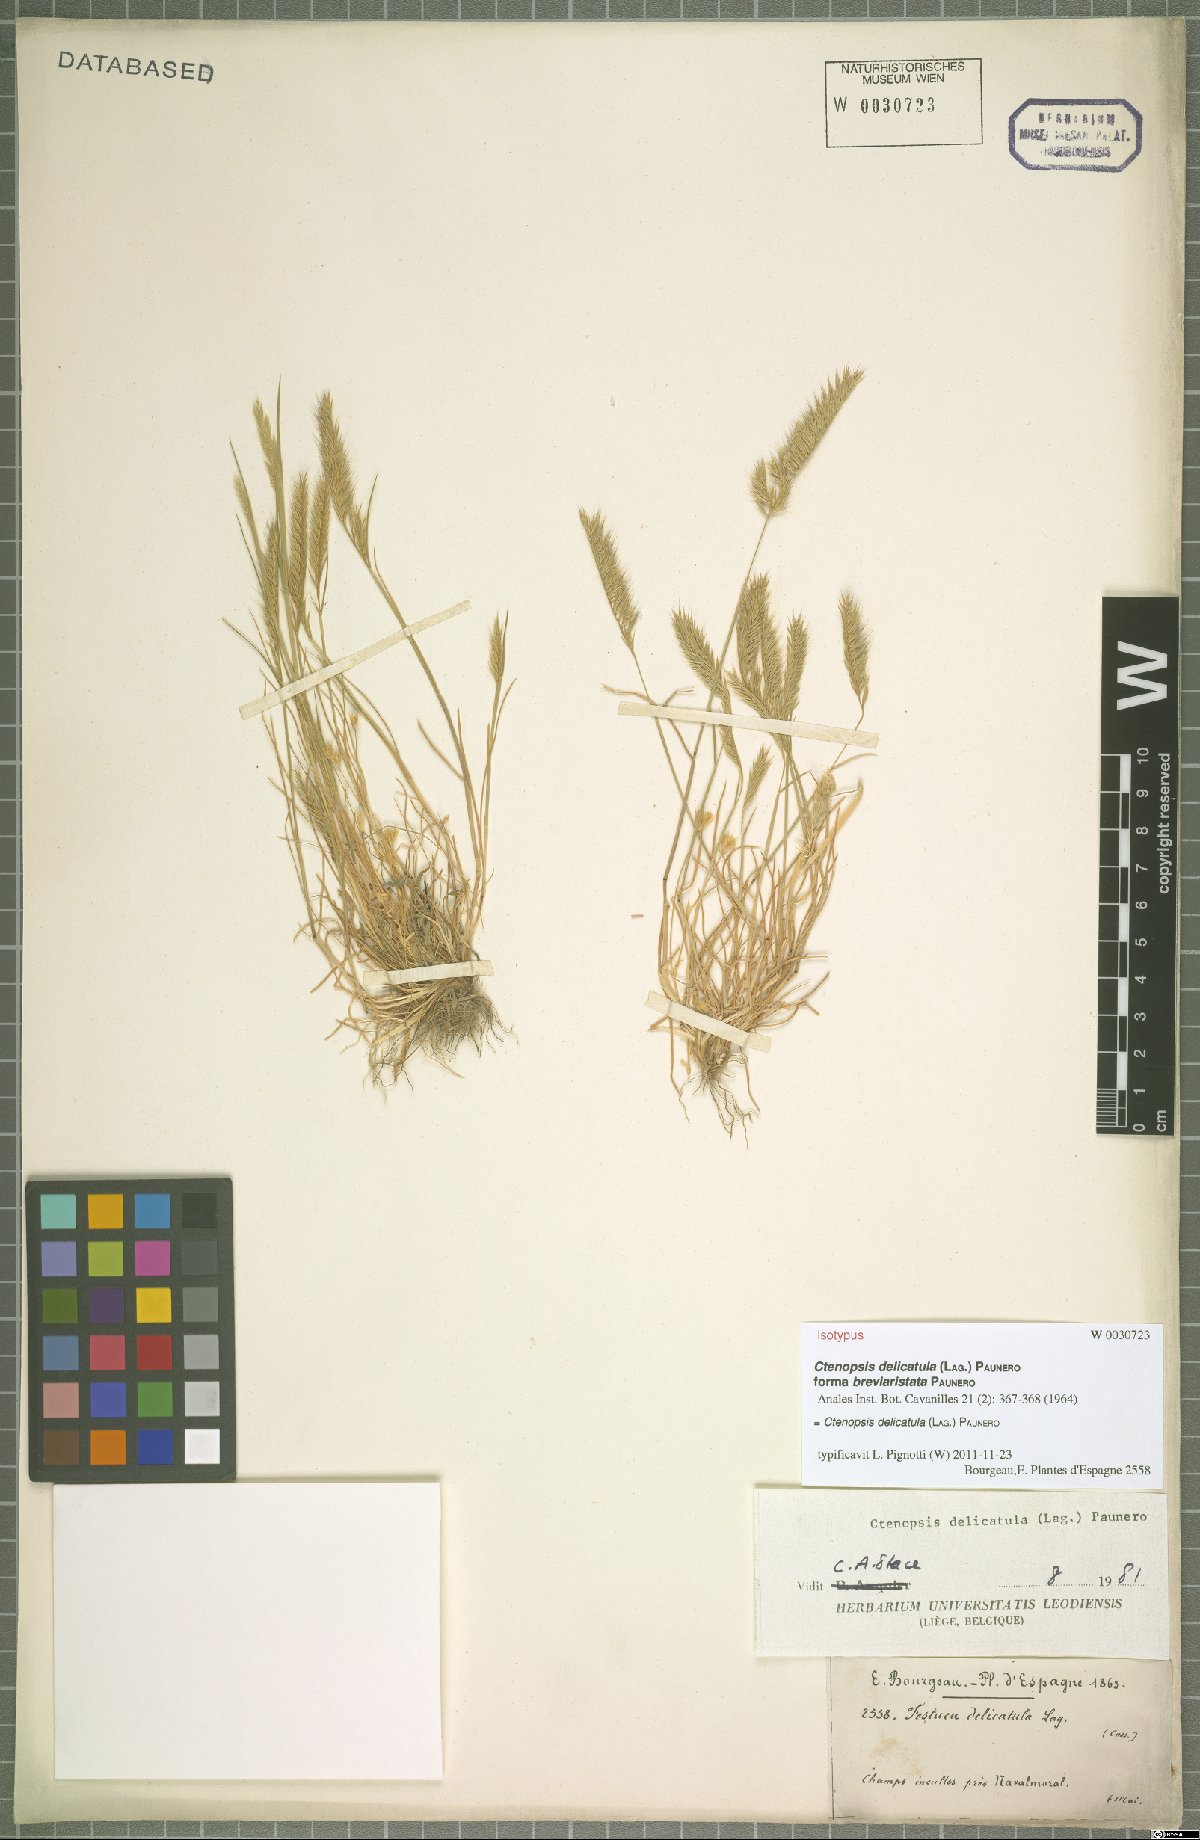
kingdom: Plantae
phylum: Tracheophyta
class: Liliopsida
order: Poales
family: Poaceae
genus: Festuca
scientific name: Festuca delicatula
